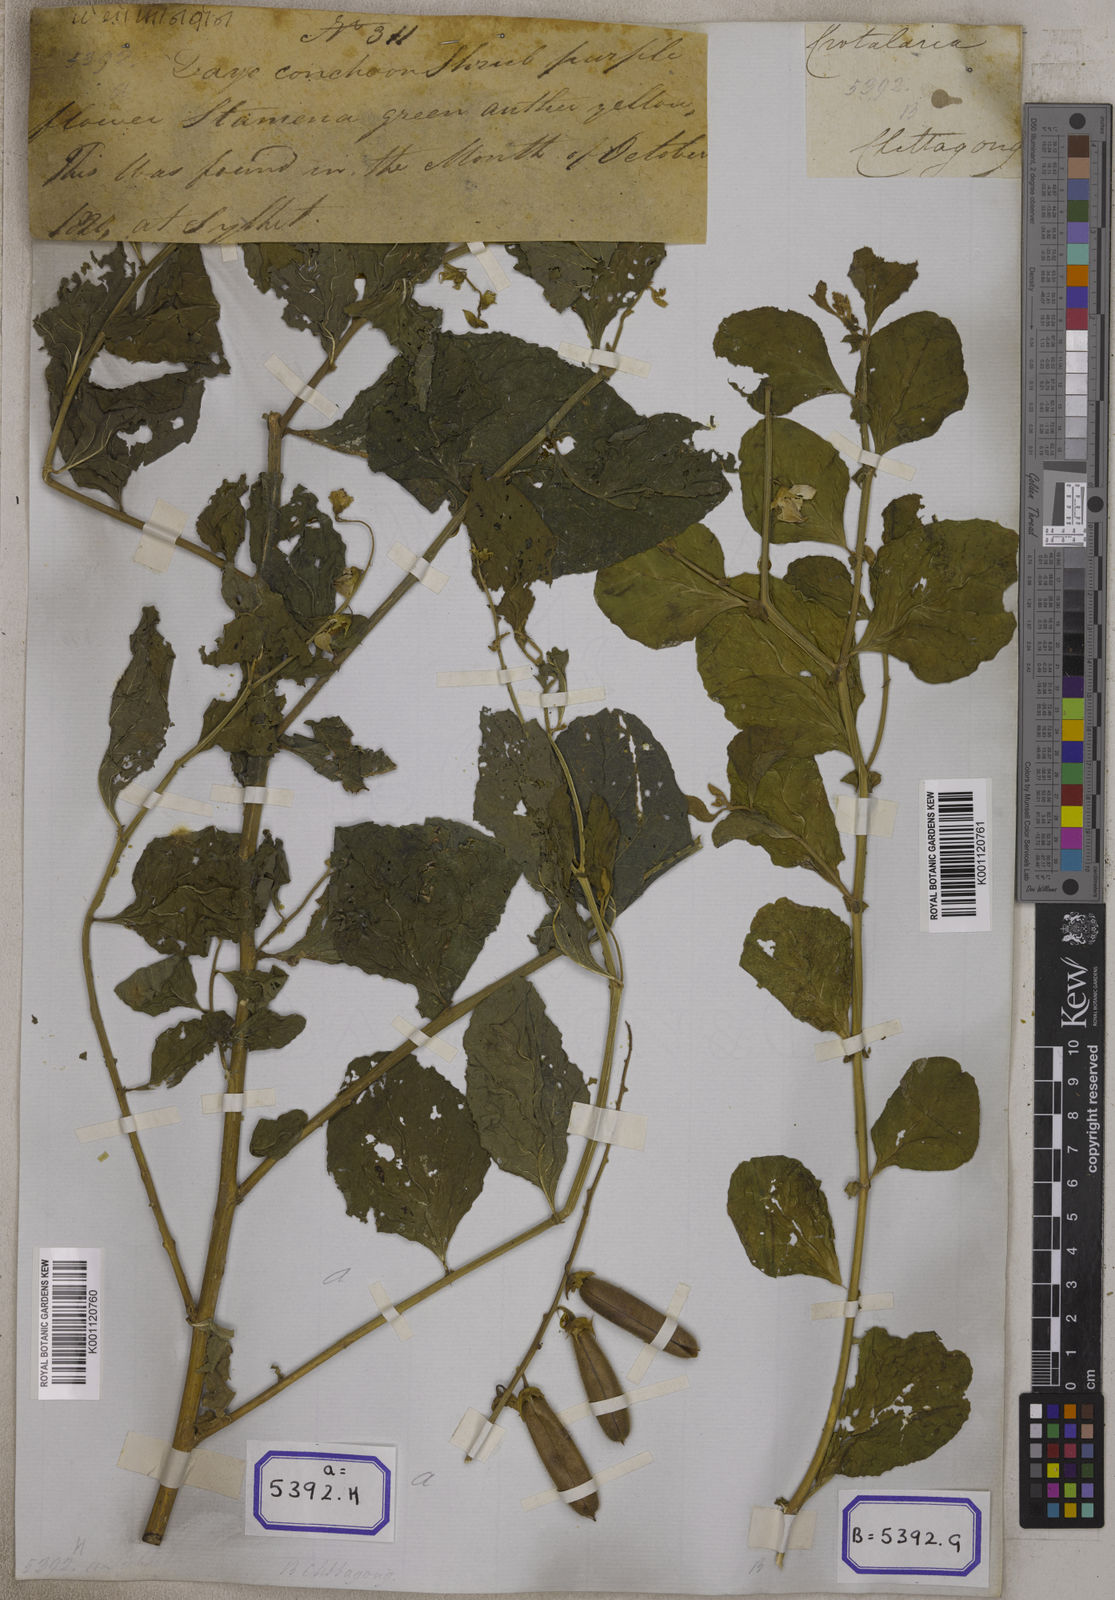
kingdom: Plantae
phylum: Tracheophyta
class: Magnoliopsida
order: Fabales
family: Fabaceae
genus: Crotalaria
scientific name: Crotalaria verrucosa
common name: Blue rattlesnake
